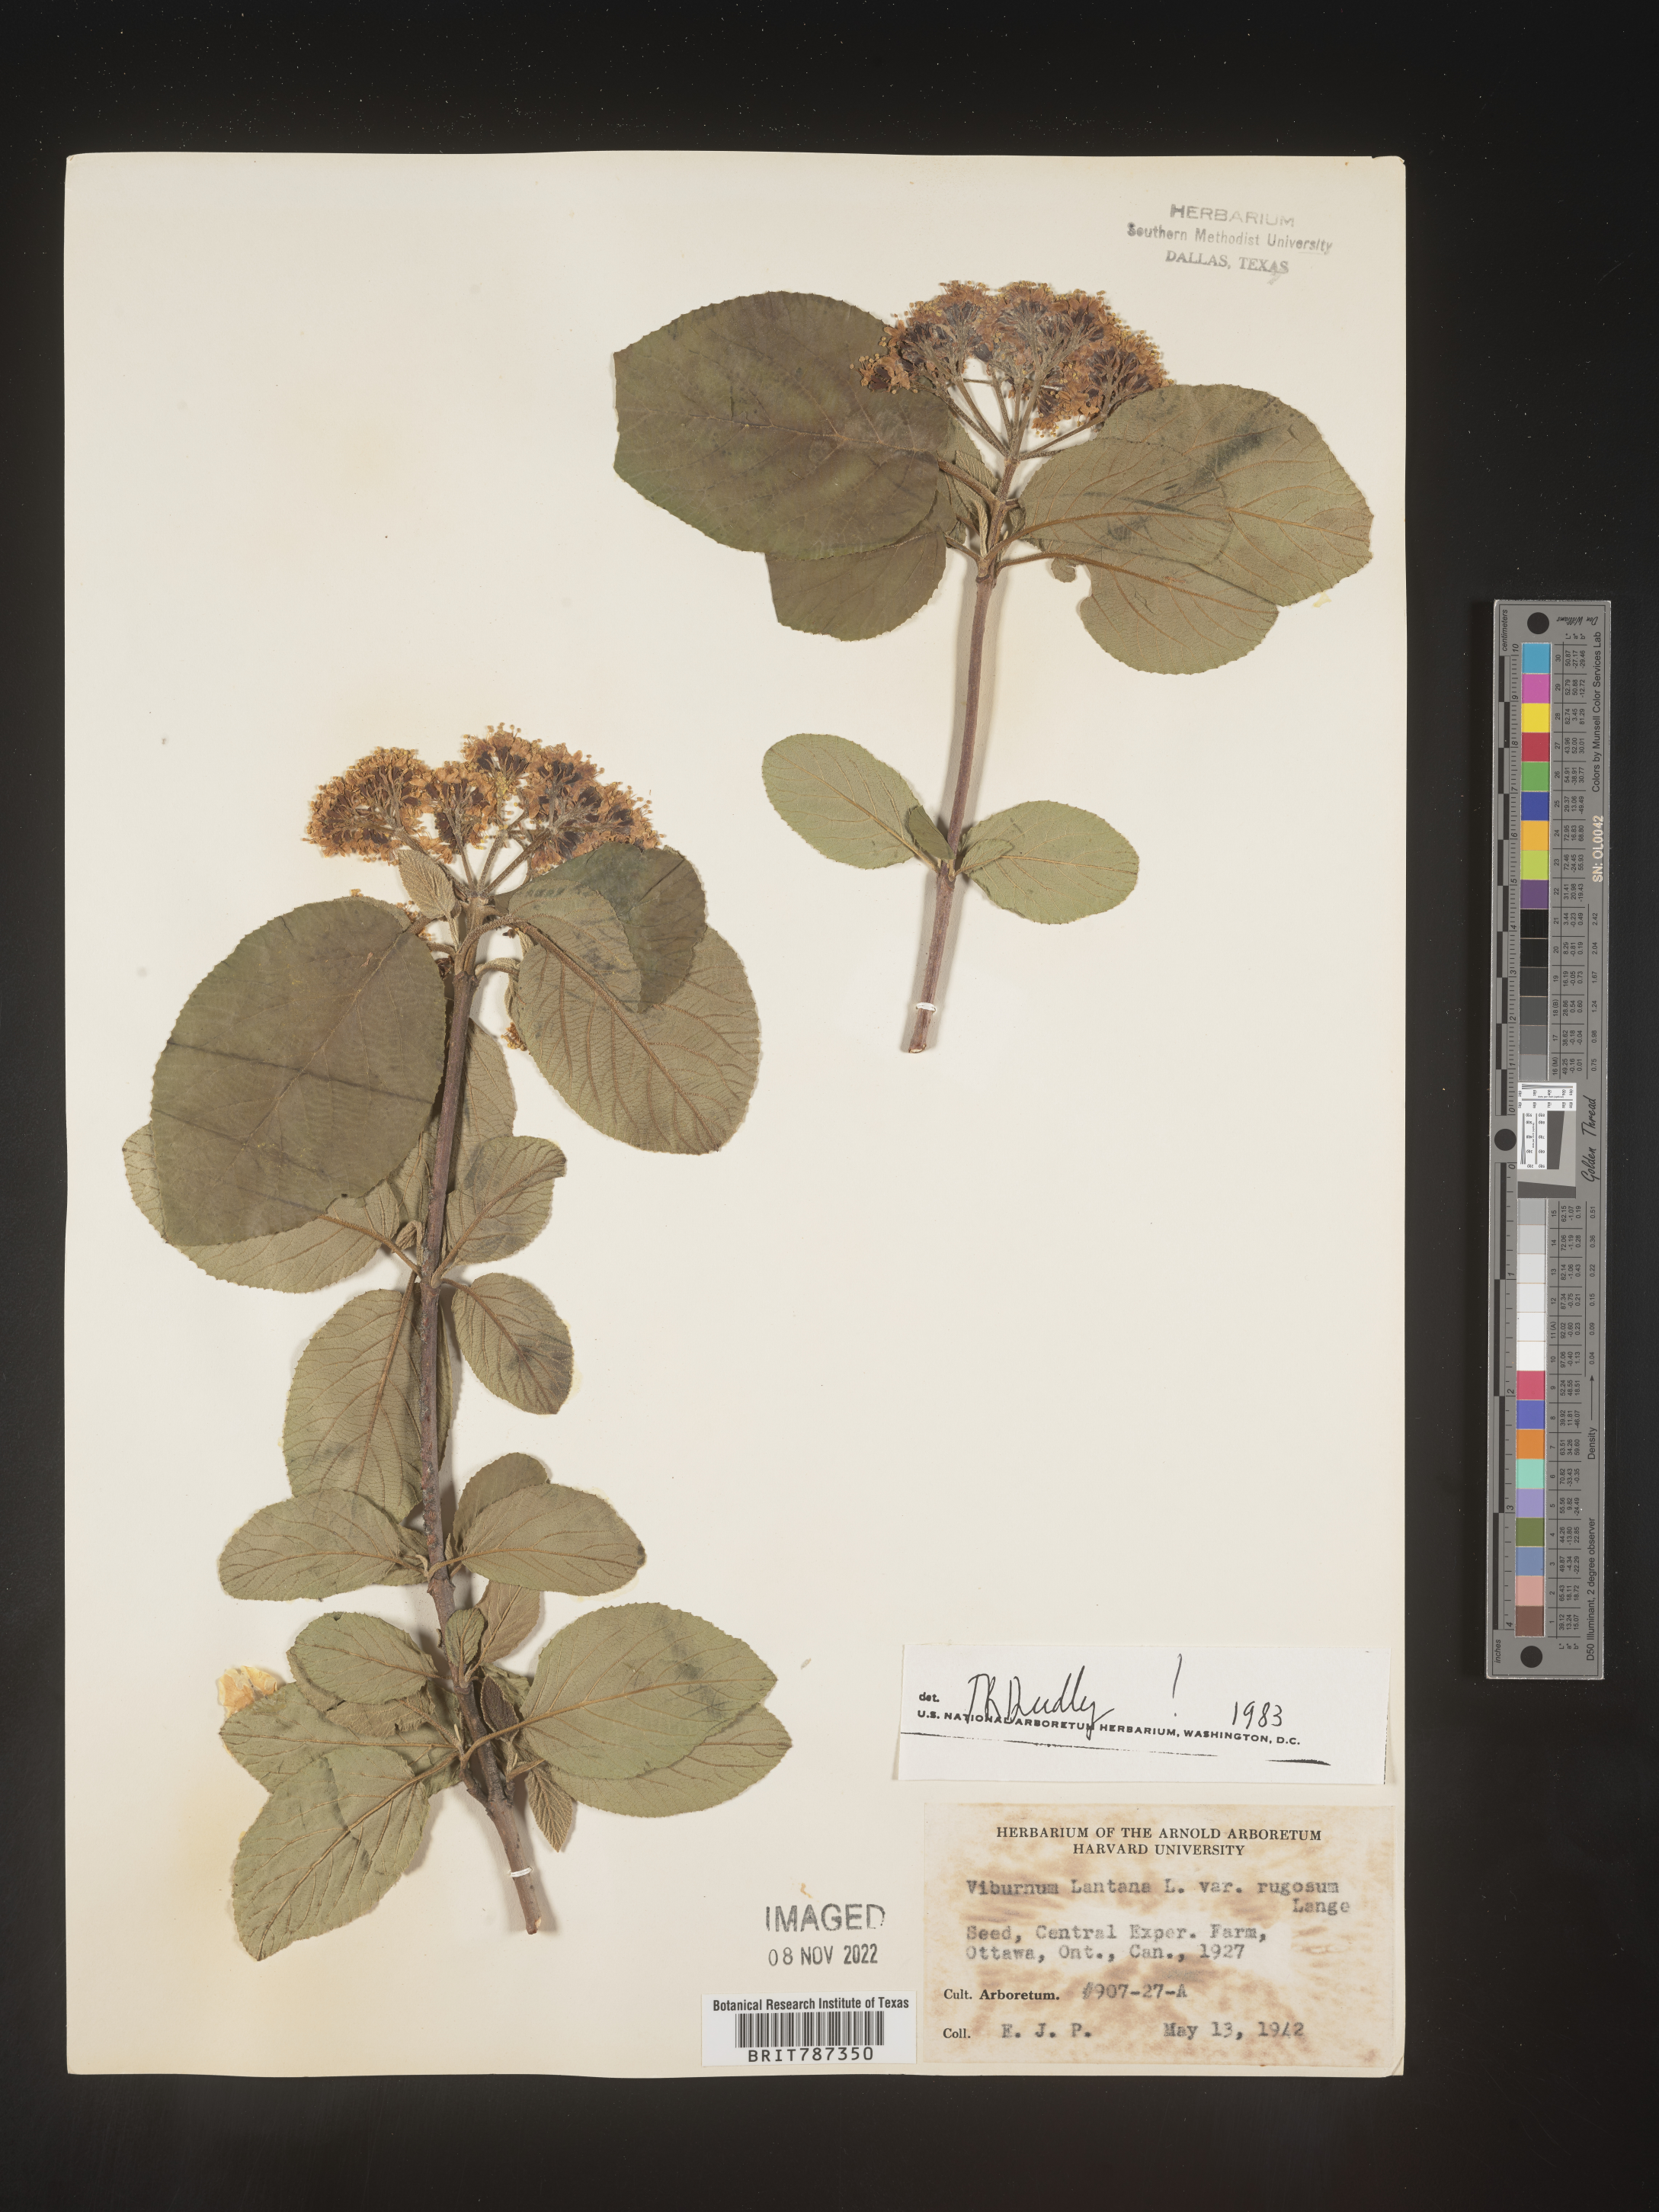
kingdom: Plantae
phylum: Tracheophyta
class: Magnoliopsida
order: Dipsacales
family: Viburnaceae
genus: Viburnum
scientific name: Viburnum
